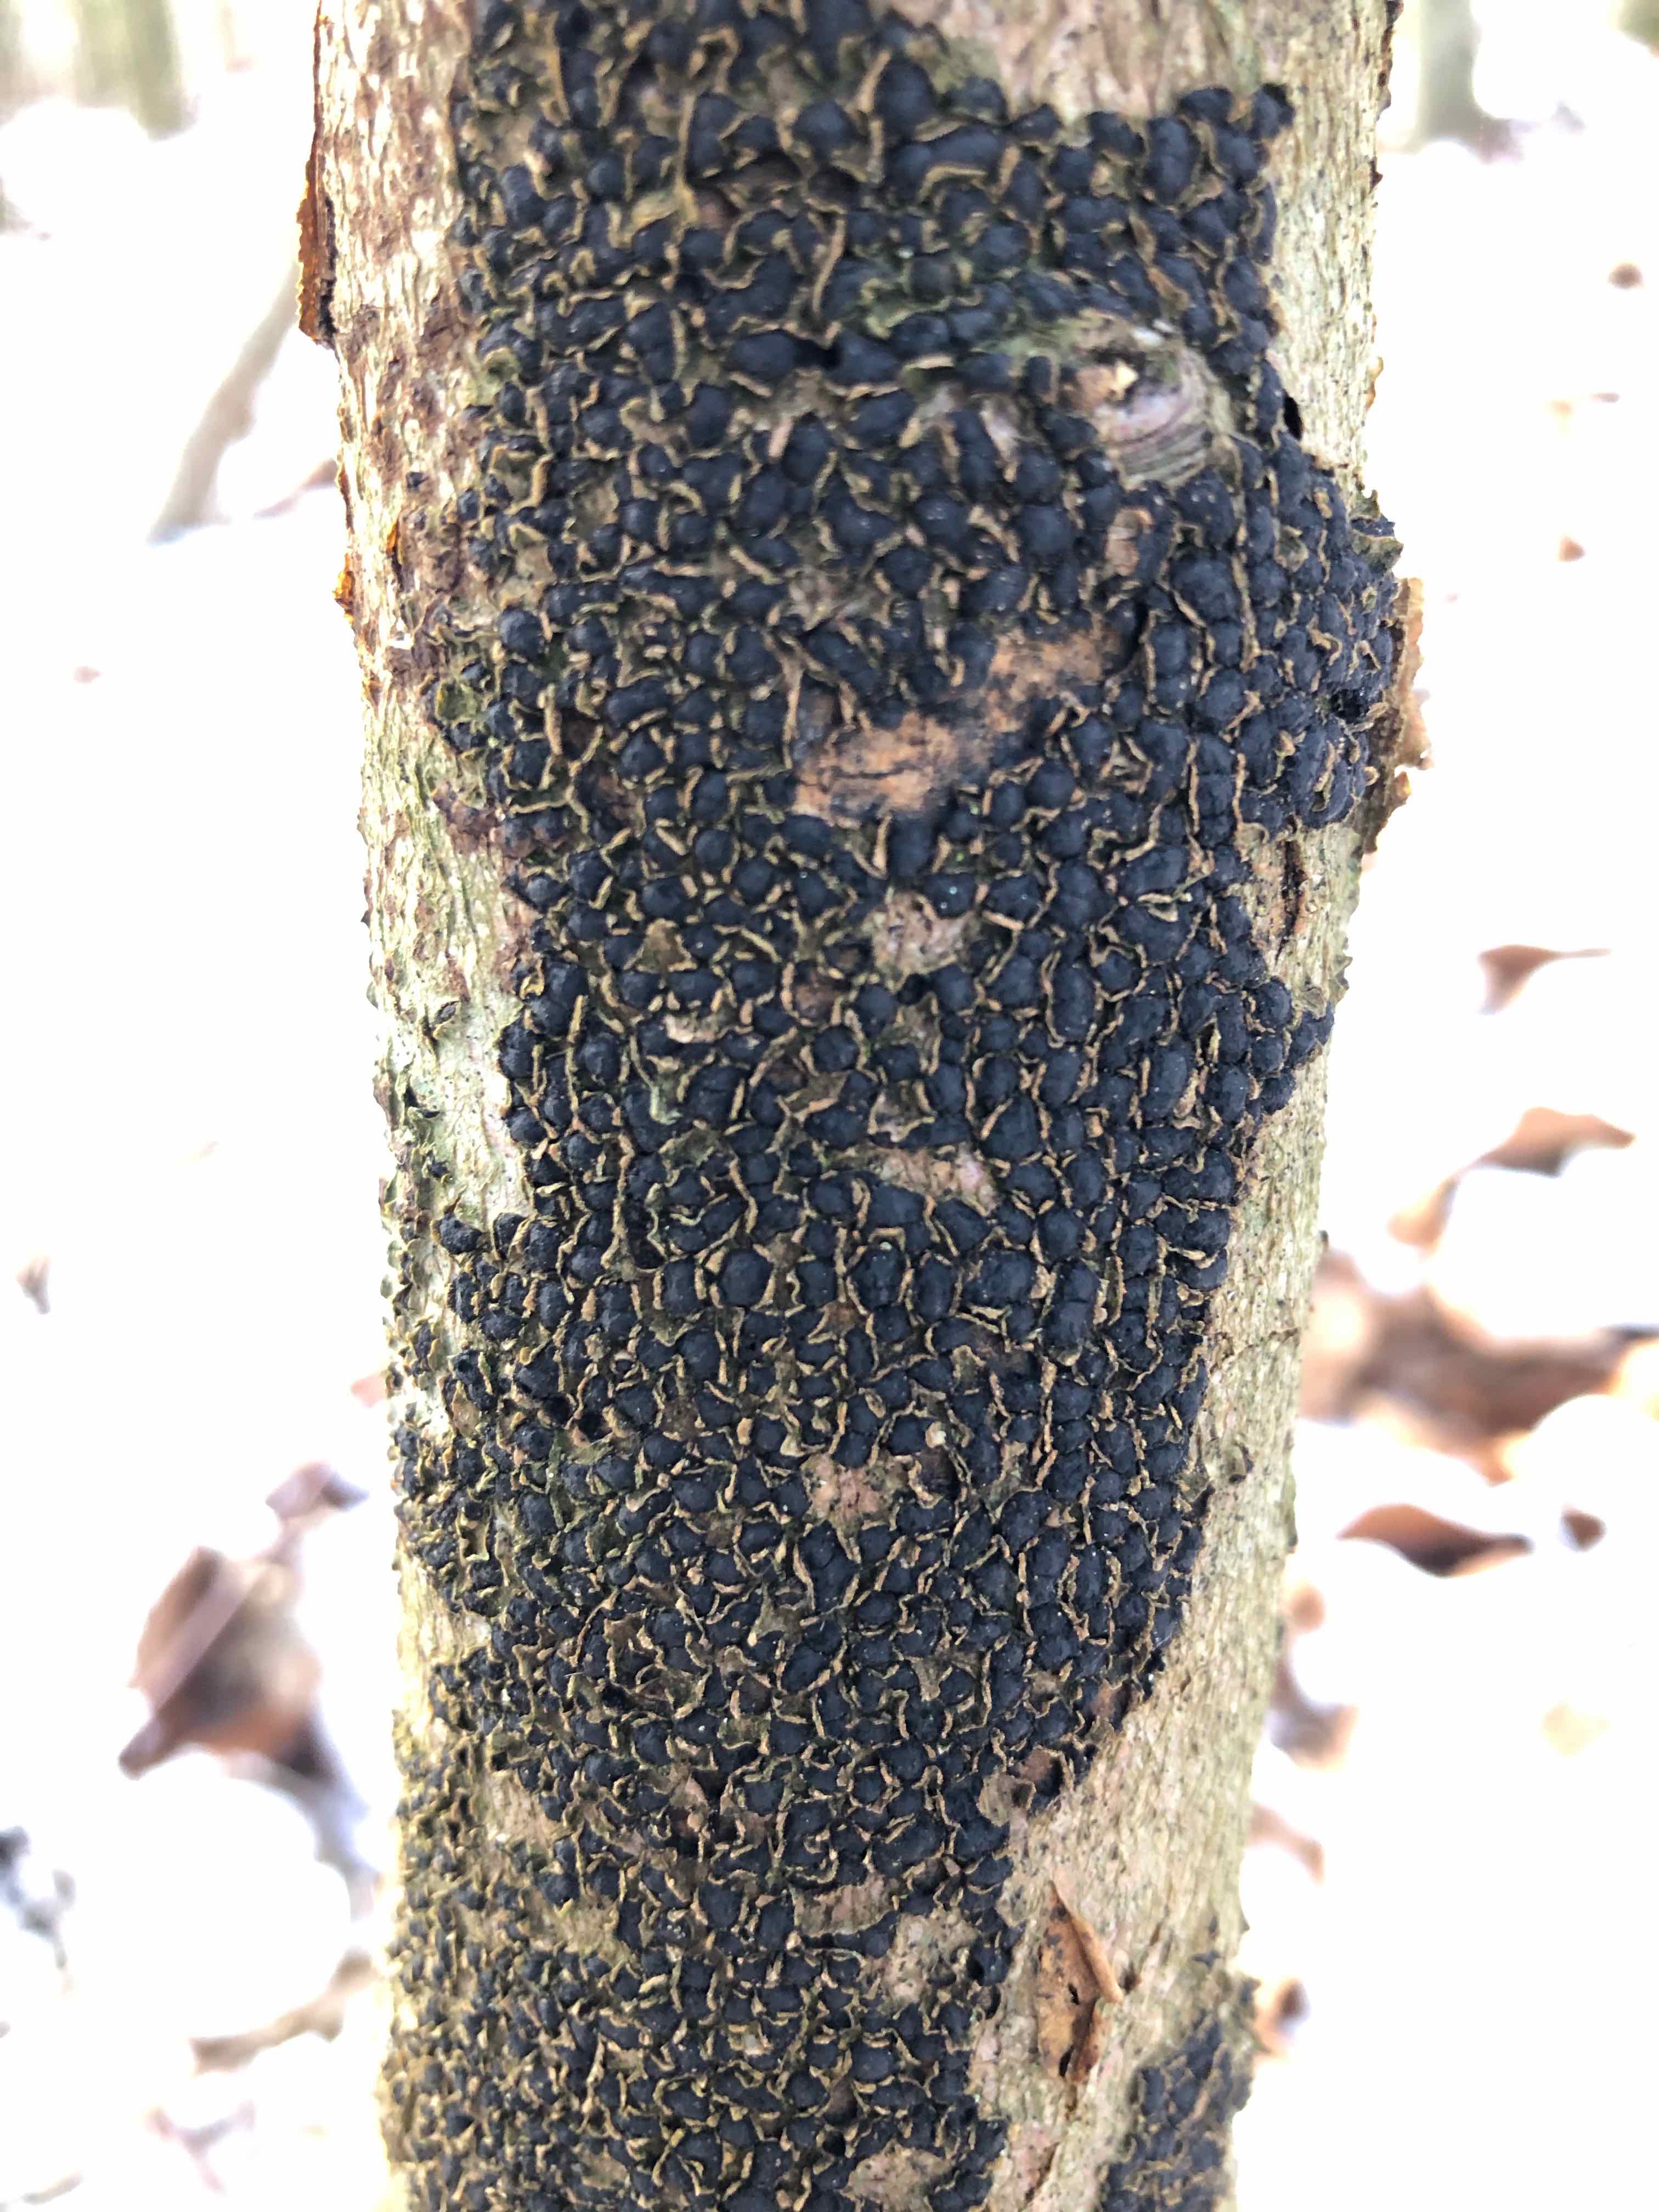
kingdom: Fungi
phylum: Ascomycota
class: Sordariomycetes
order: Xylariales
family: Melogrammataceae
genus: Melogramma
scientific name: Melogramma spiniferum
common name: bøgefod-kulhals
